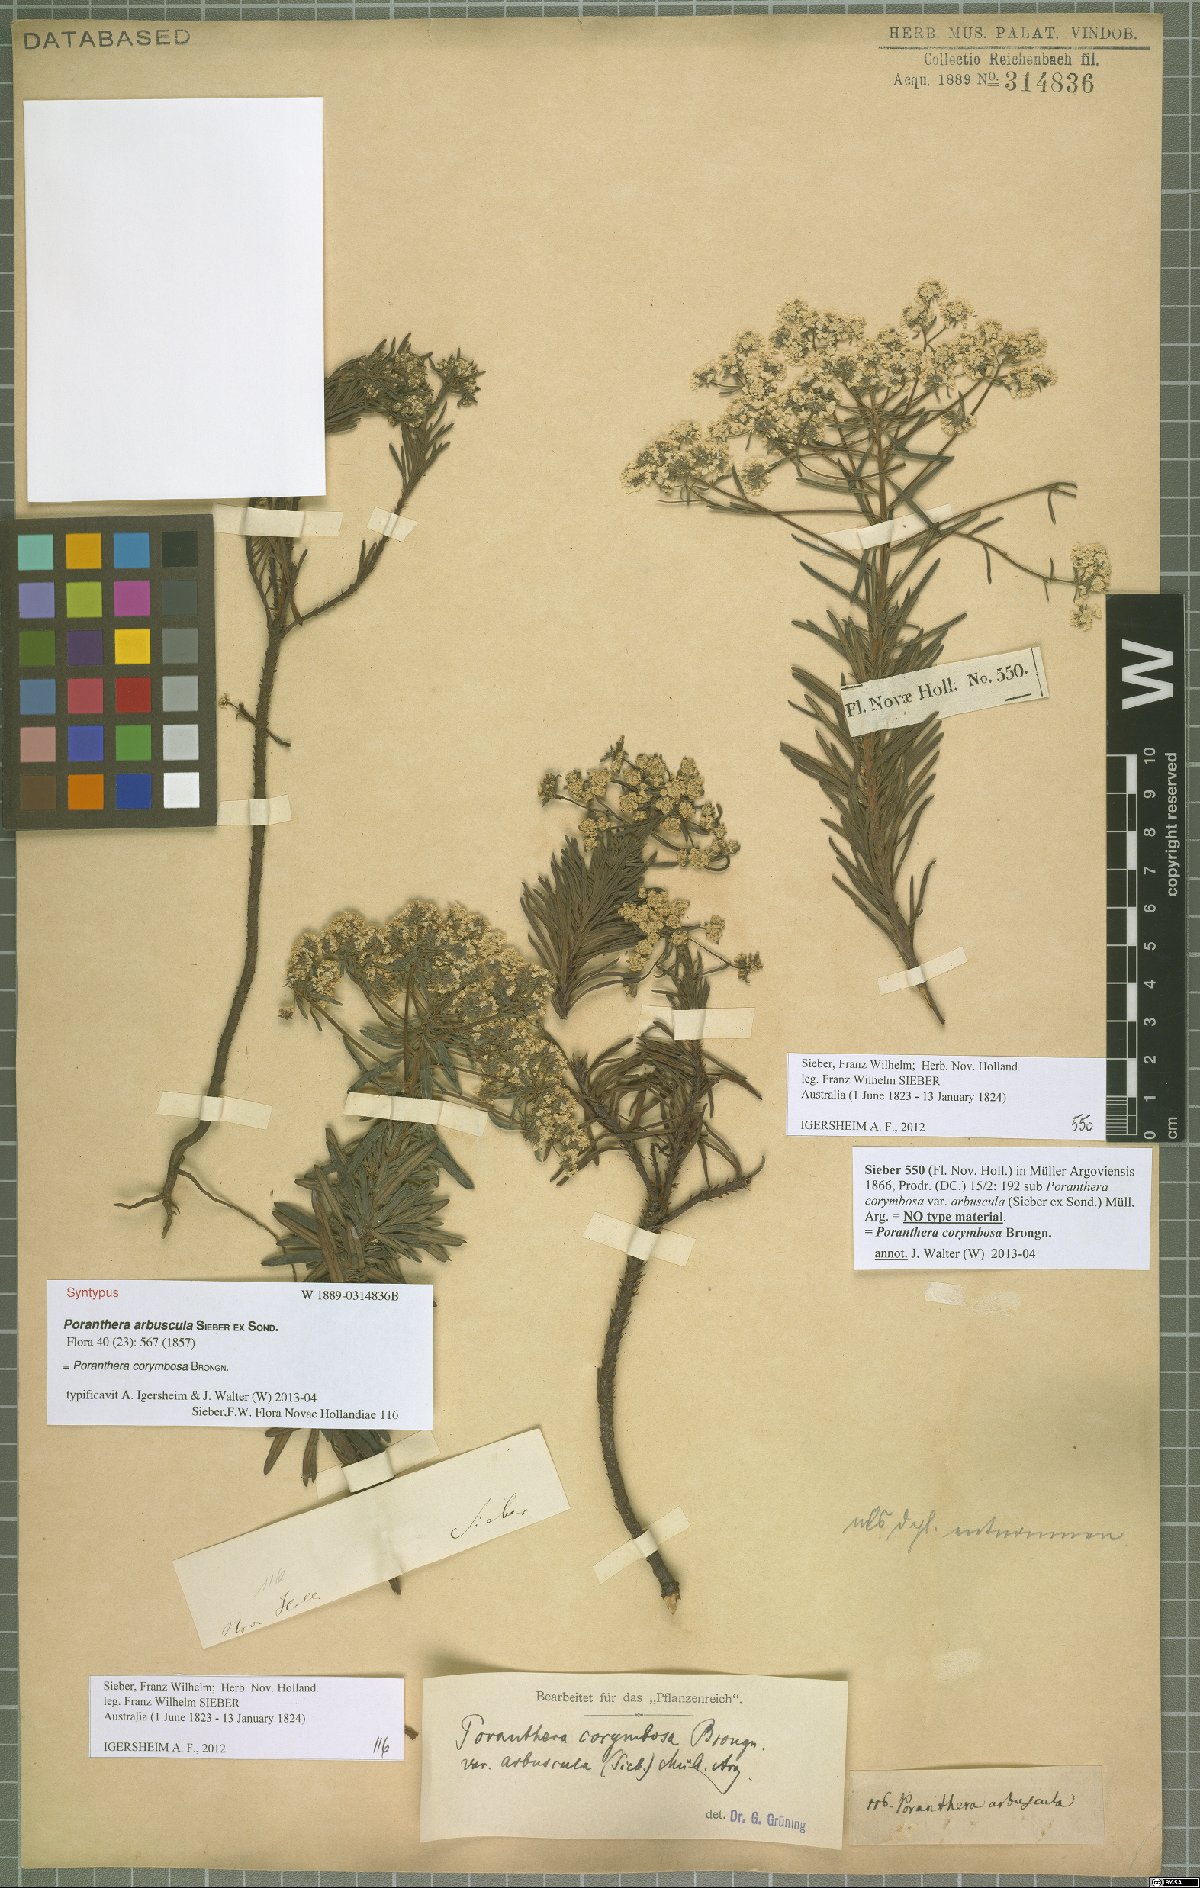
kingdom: Plantae
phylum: Tracheophyta
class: Magnoliopsida
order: Malpighiales
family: Phyllanthaceae
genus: Poranthera
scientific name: Poranthera corymbosa
